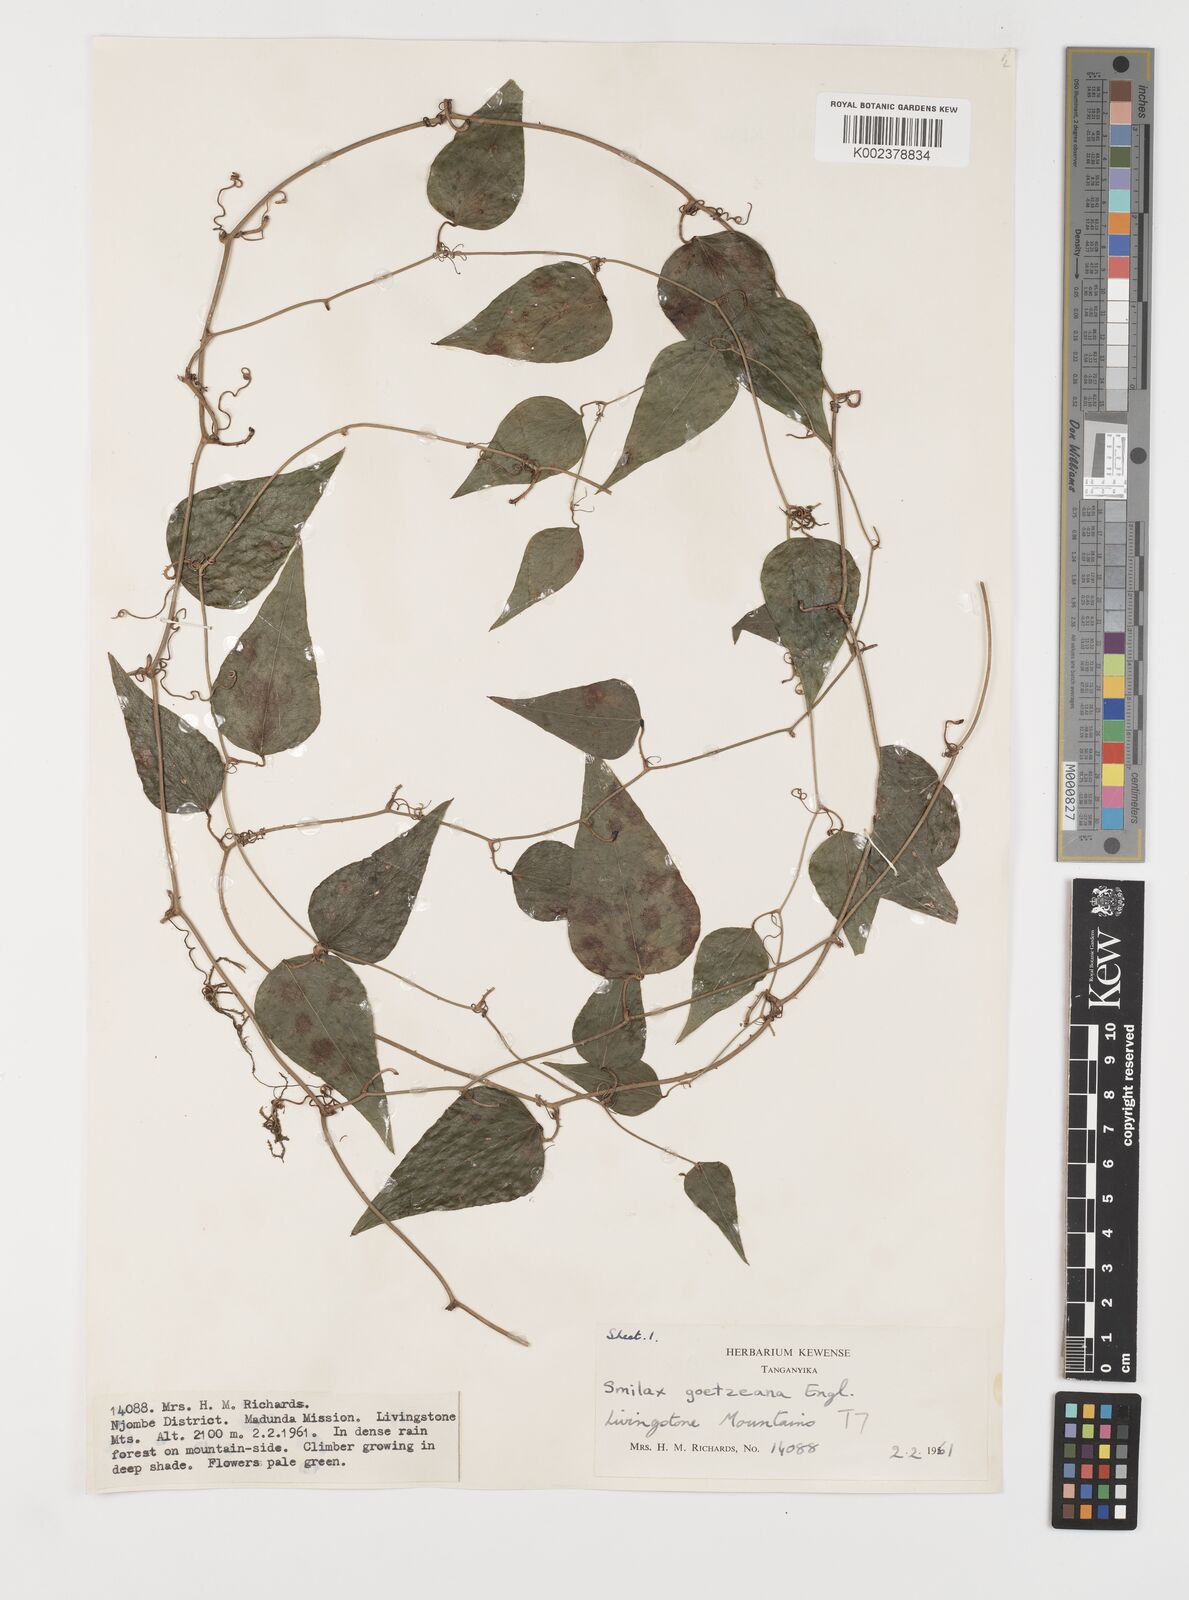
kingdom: Plantae
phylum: Tracheophyta
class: Liliopsida
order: Liliales
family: Smilacaceae
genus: Smilax
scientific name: Smilax aspera
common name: Common smilax
